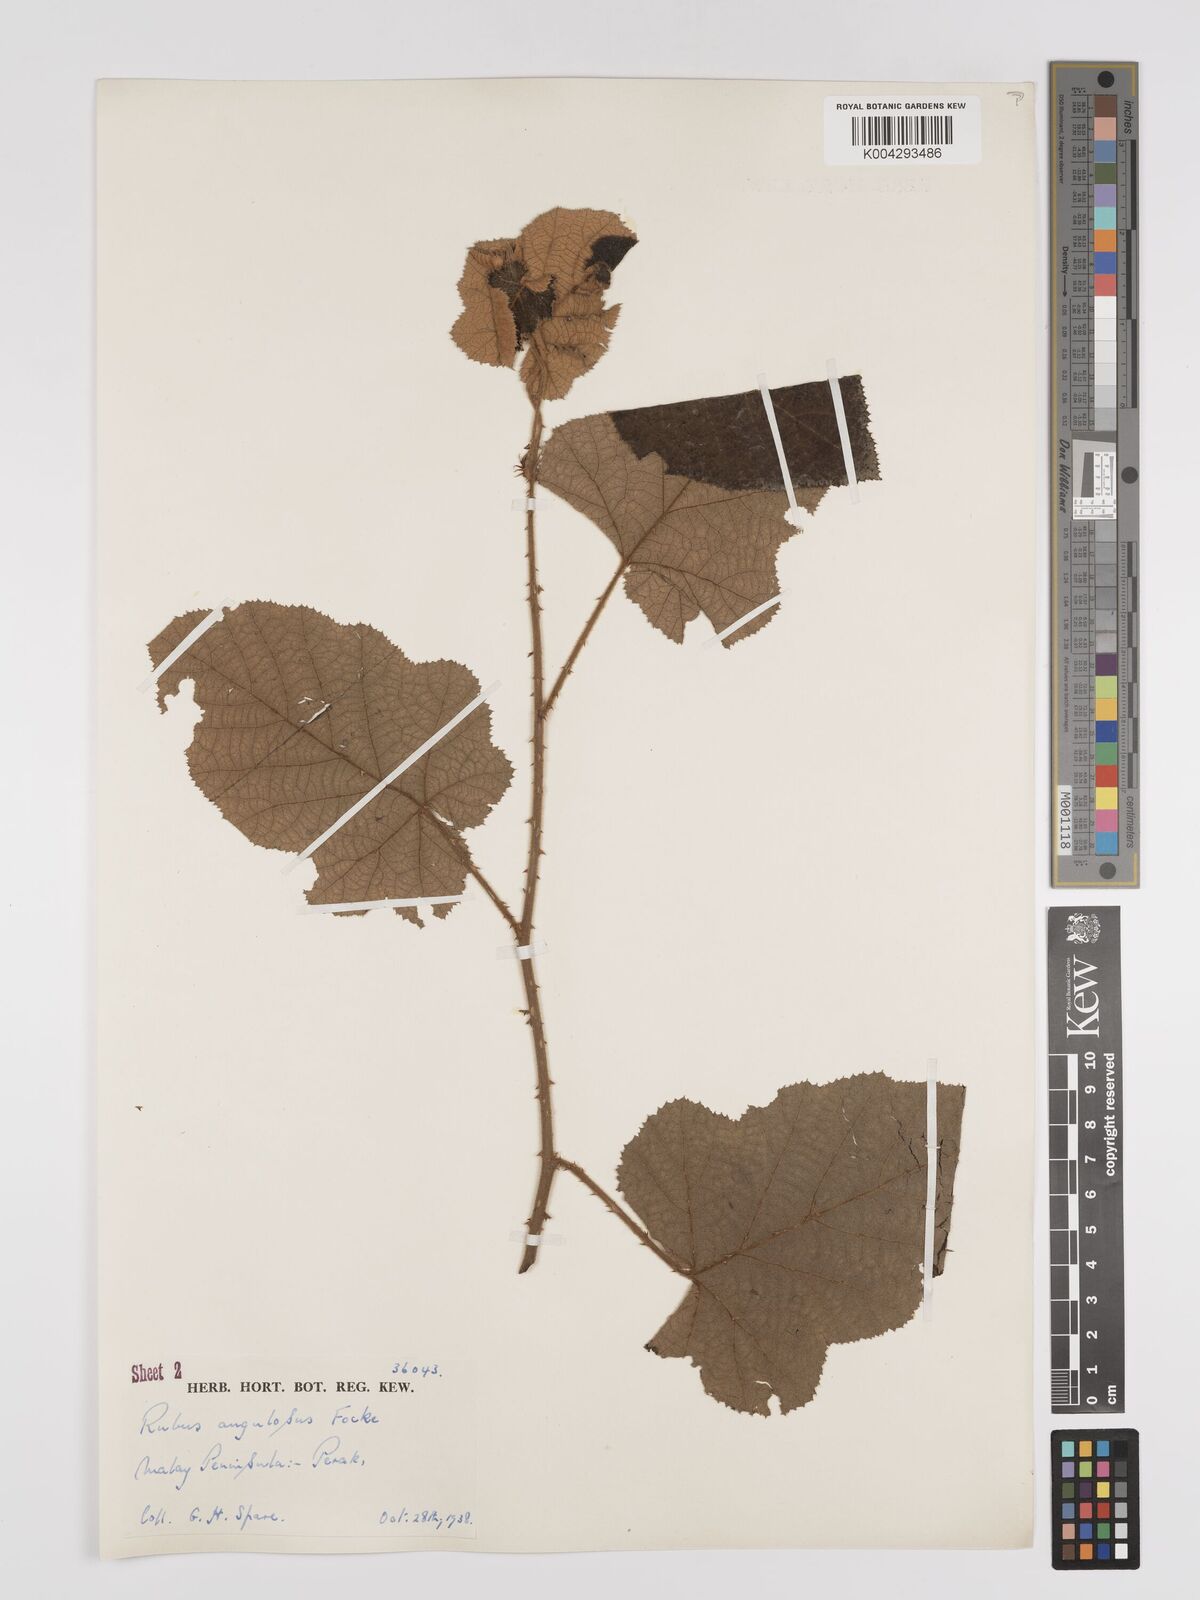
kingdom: Plantae
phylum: Tracheophyta
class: Magnoliopsida
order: Rosales
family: Rosaceae
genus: Rubus
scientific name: Rubus moluccanus
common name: Wild raspberry
